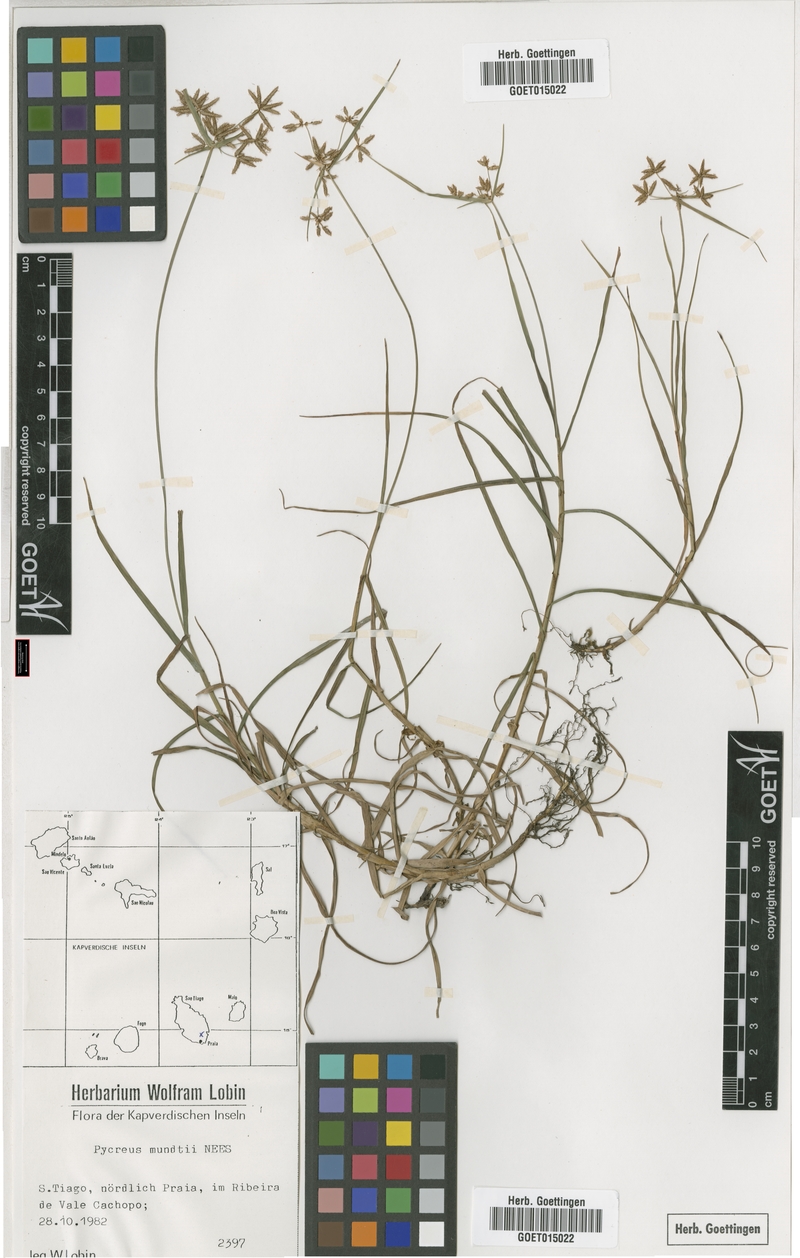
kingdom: Plantae
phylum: Tracheophyta
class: Liliopsida
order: Poales
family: Cyperaceae
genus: Cyperus
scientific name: Cyperus mundii
